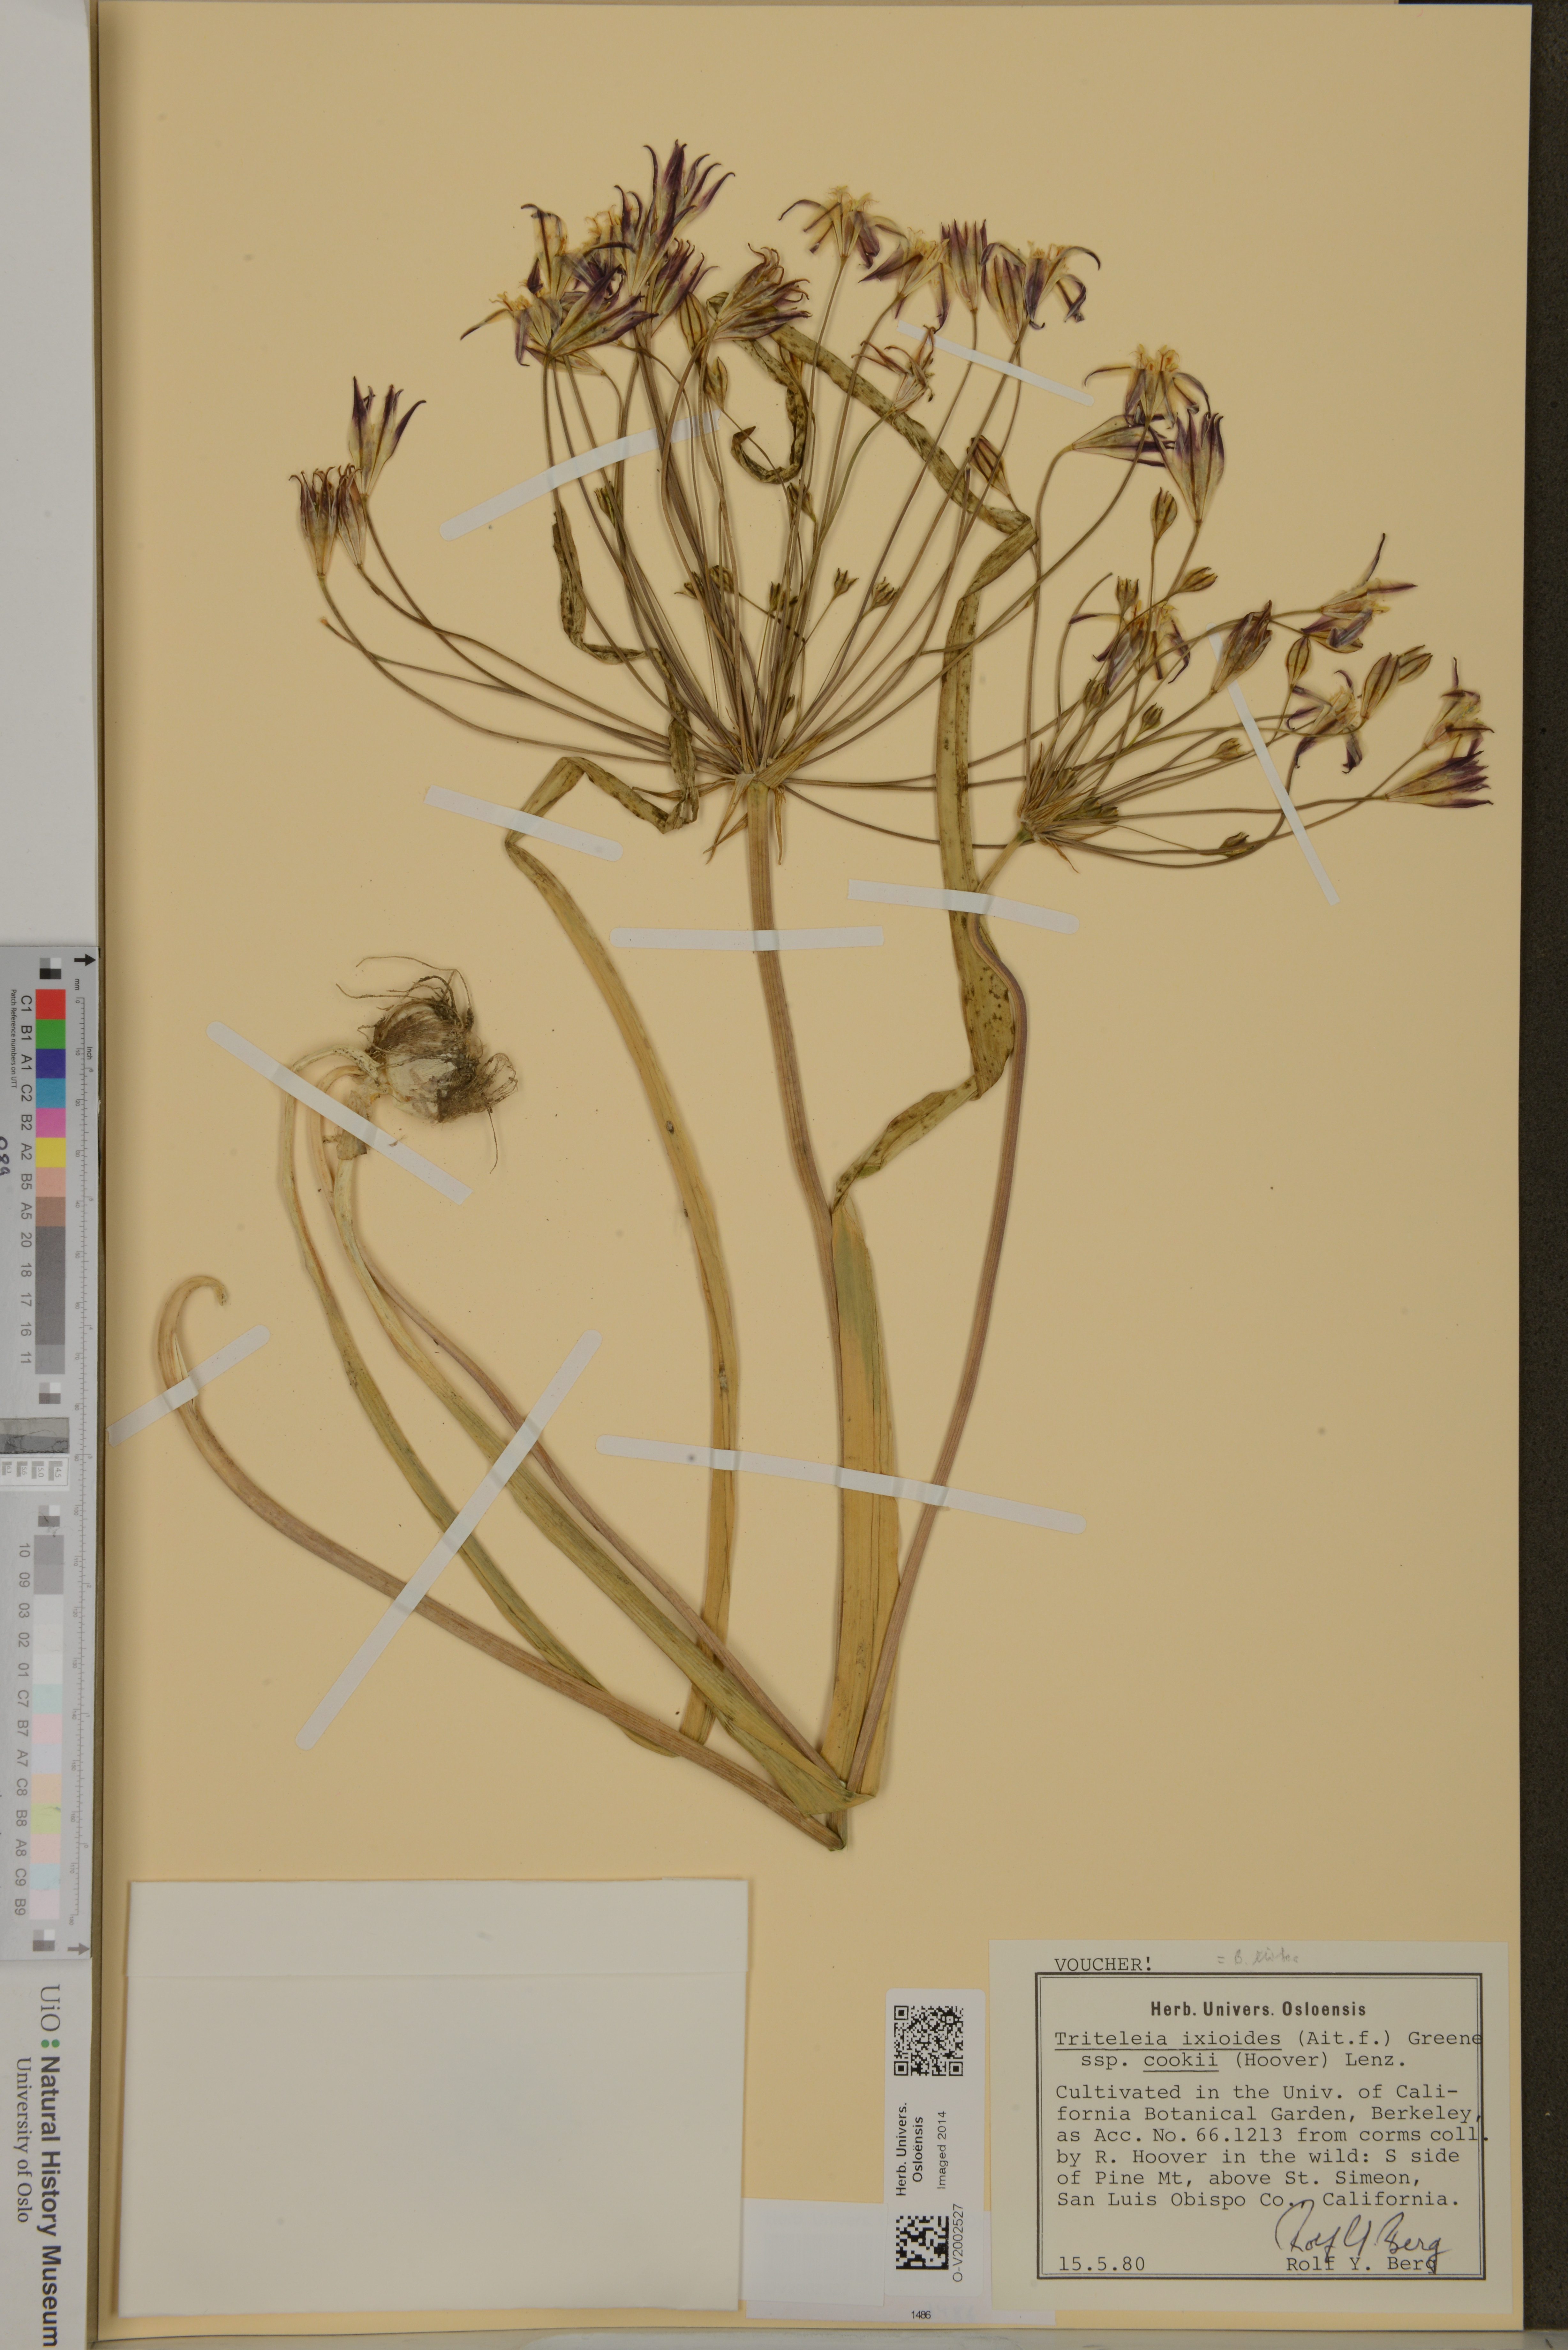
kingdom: Plantae
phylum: Tracheophyta
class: Liliopsida
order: Asparagales
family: Asparagaceae
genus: Triteleia
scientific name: Triteleia ixioides
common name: Yellow-brodiaea
